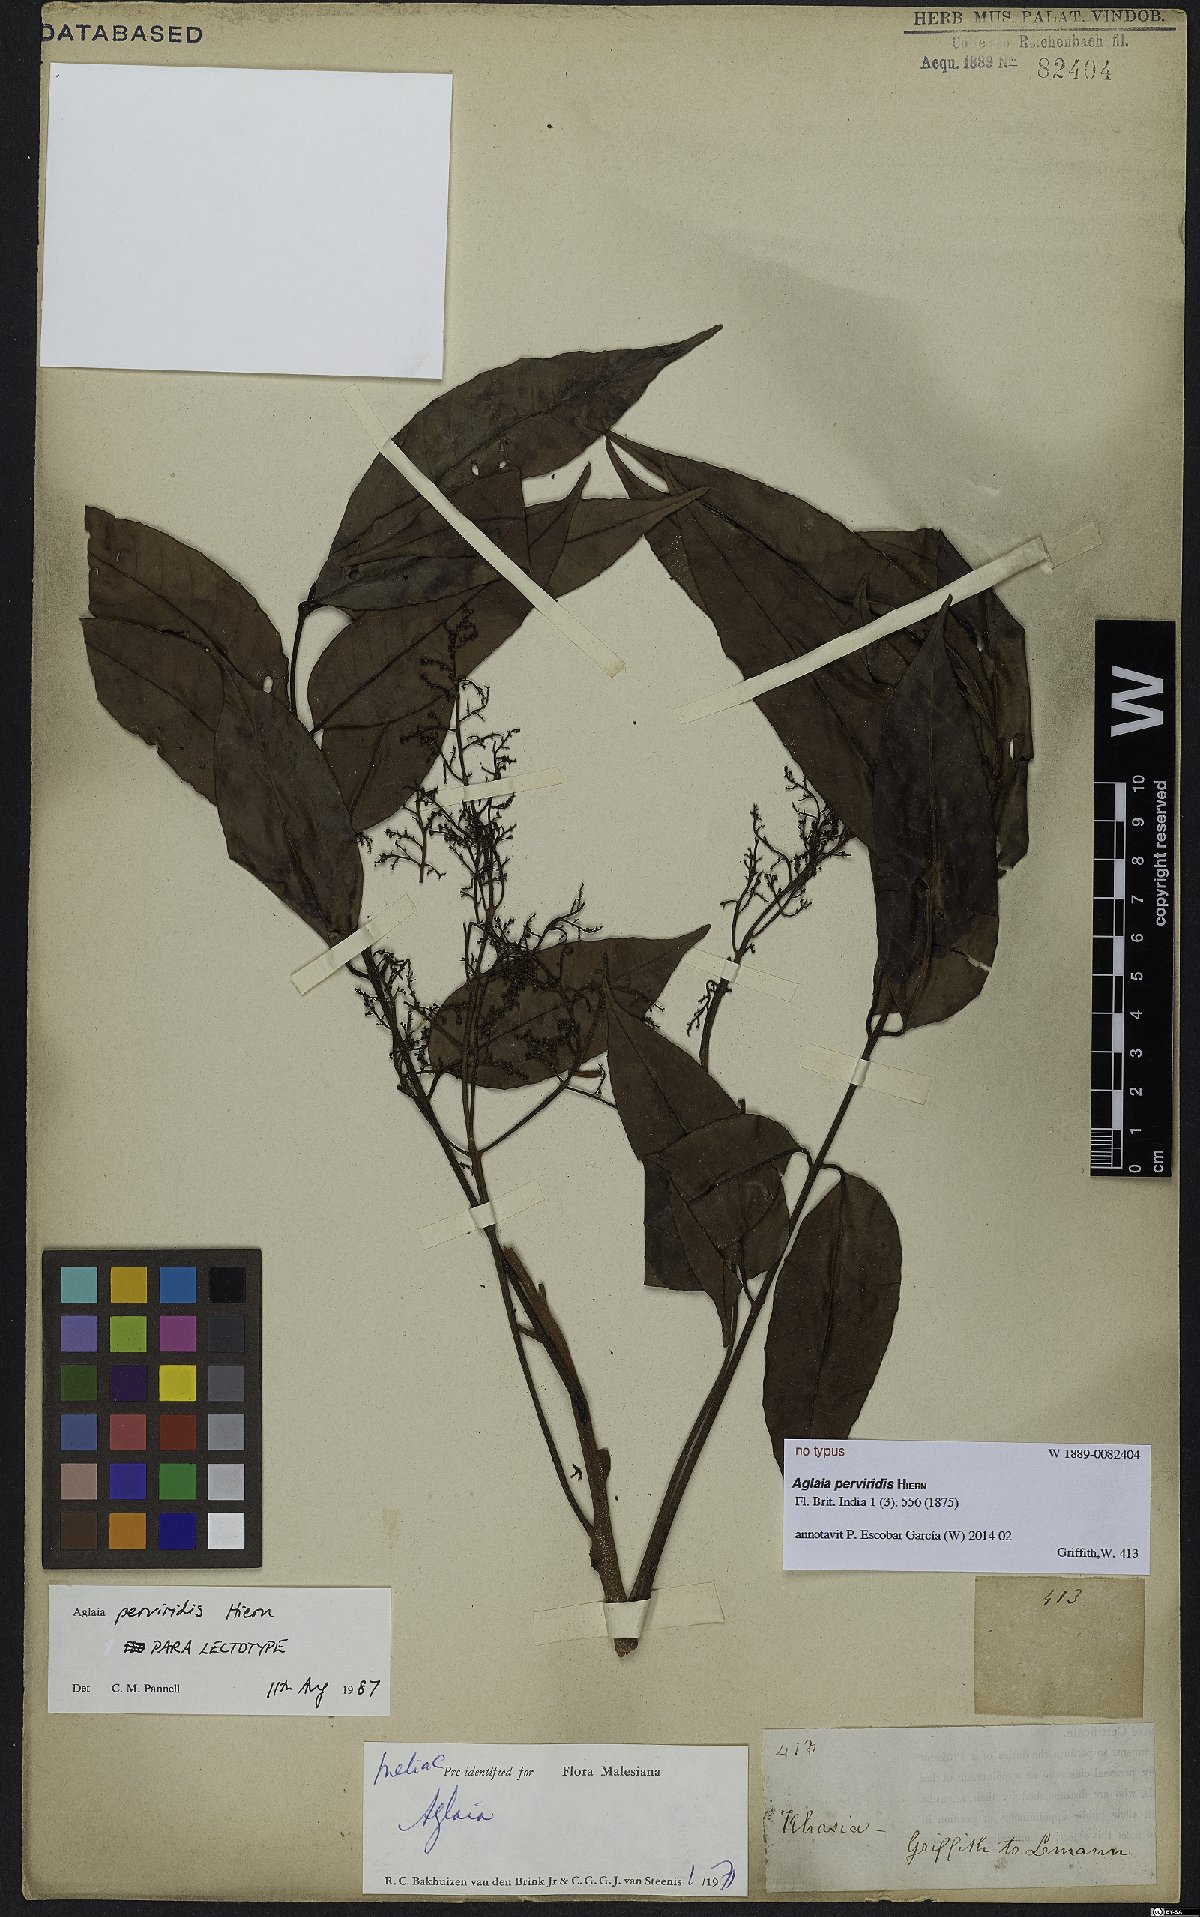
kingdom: Plantae
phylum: Tracheophyta
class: Magnoliopsida
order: Sapindales
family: Meliaceae
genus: Aglaia
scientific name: Aglaia perviridis
